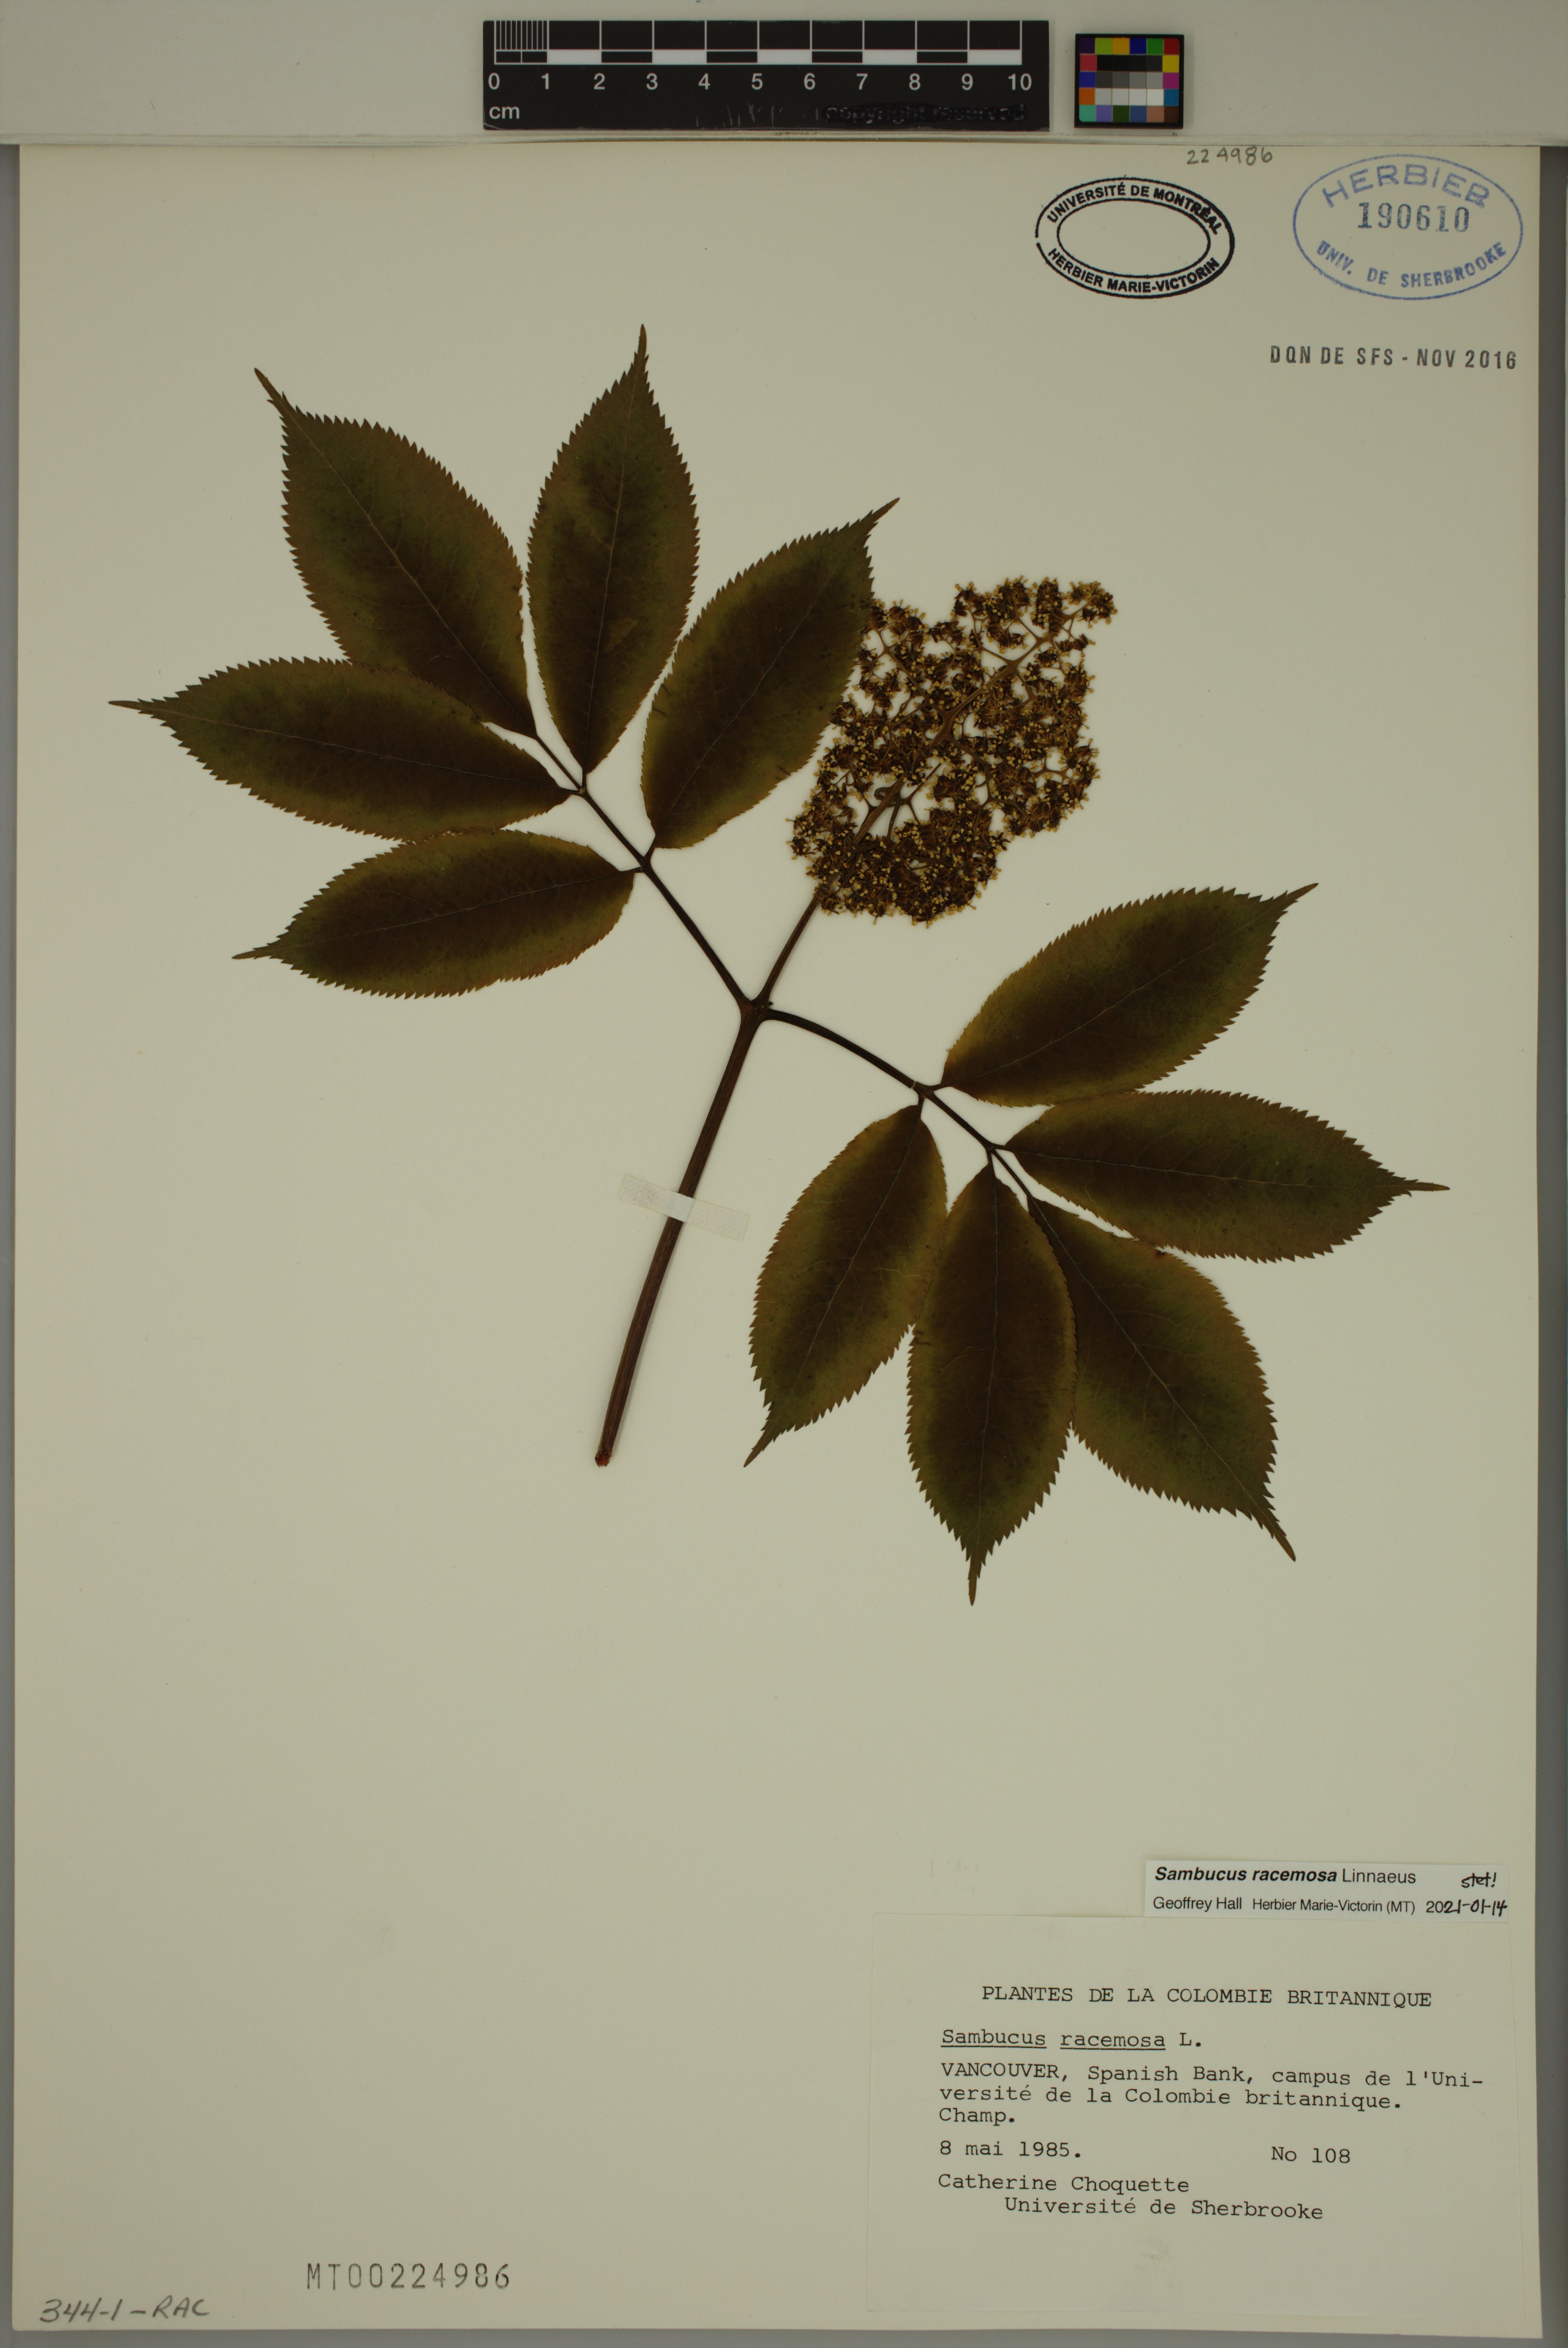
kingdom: Plantae
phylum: Tracheophyta
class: Magnoliopsida
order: Dipsacales
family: Viburnaceae
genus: Sambucus
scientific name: Sambucus racemosa
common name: Red-berried elder
